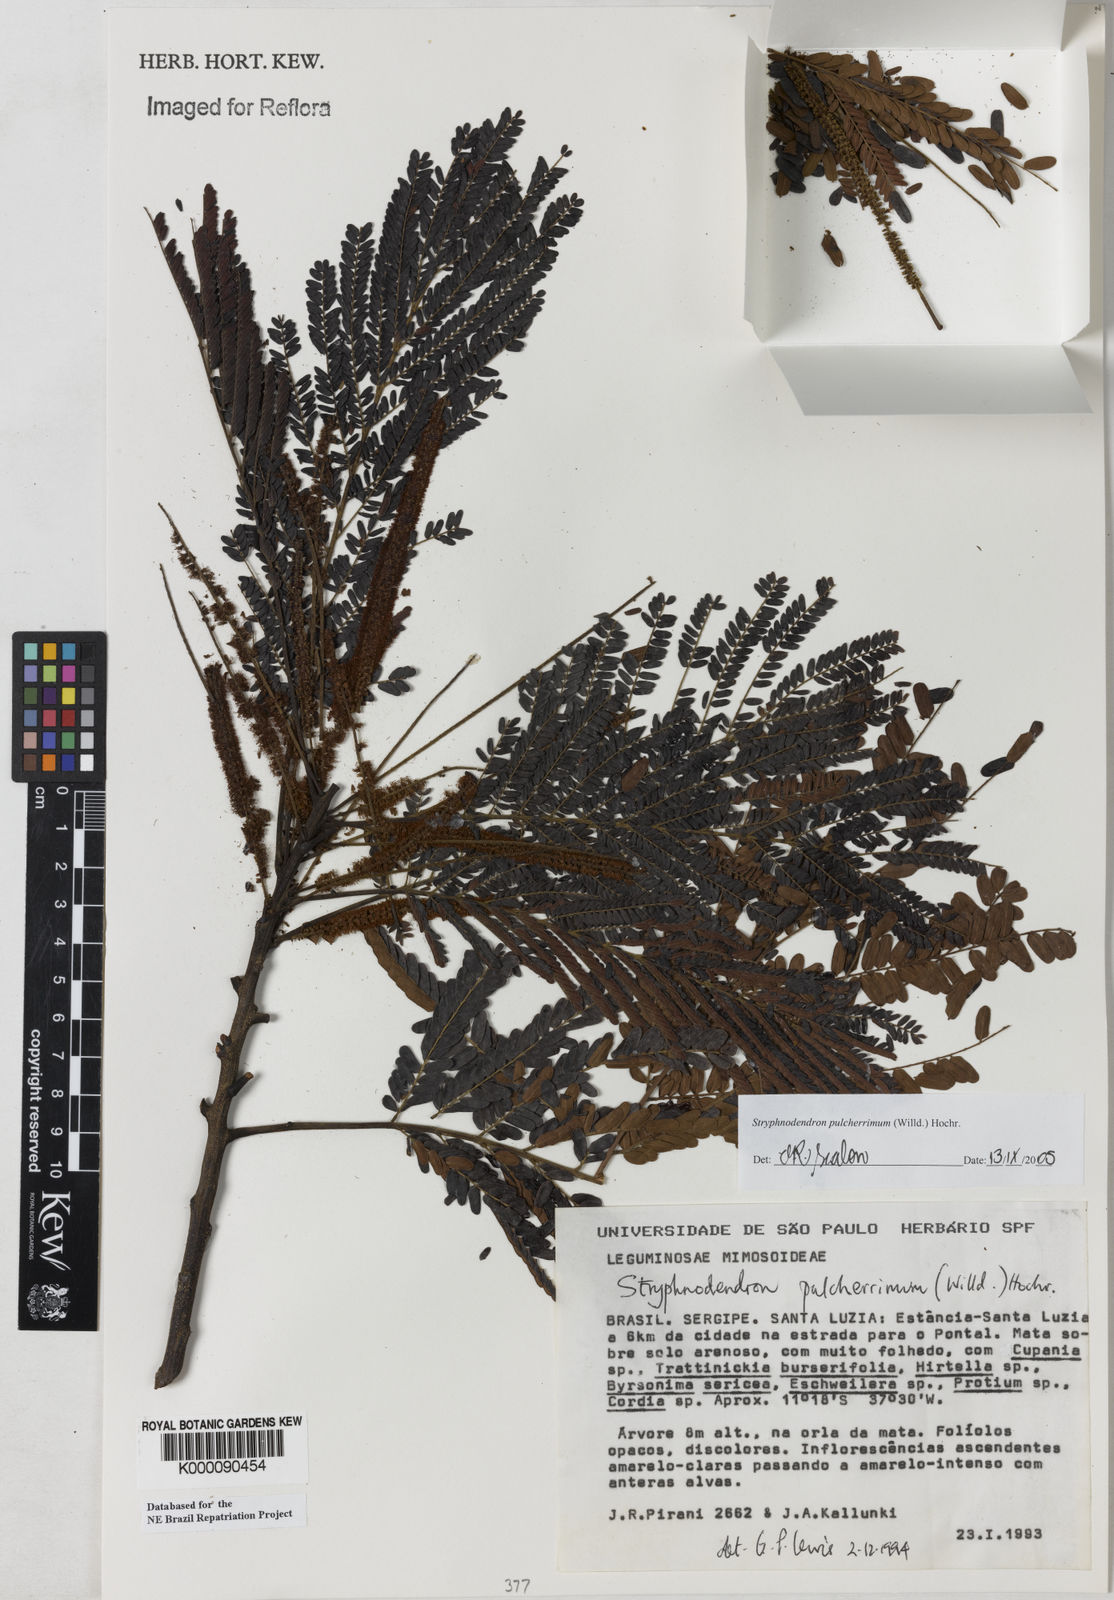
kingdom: Plantae
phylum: Tracheophyta
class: Magnoliopsida
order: Fabales
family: Fabaceae
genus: Stryphnodendron
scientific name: Stryphnodendron pulcherrimum
